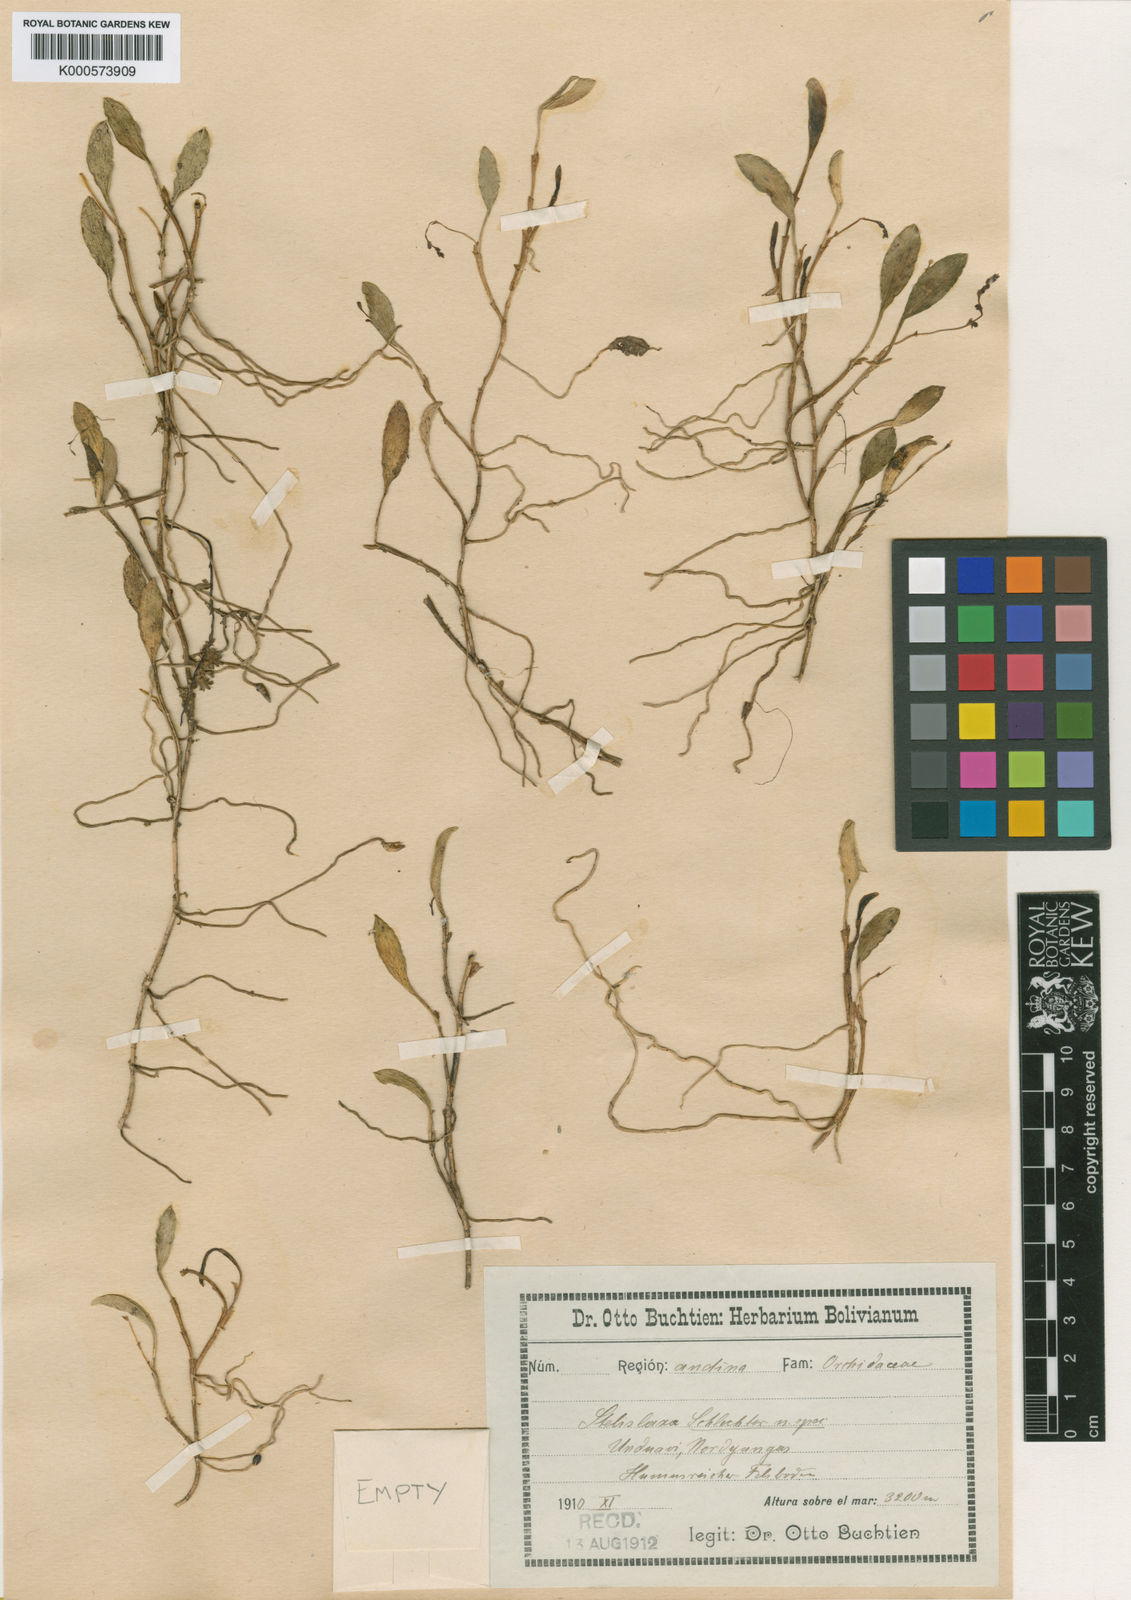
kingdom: Plantae
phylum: Tracheophyta
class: Liliopsida
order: Asparagales
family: Orchidaceae
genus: Stelis
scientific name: Stelis laxa
